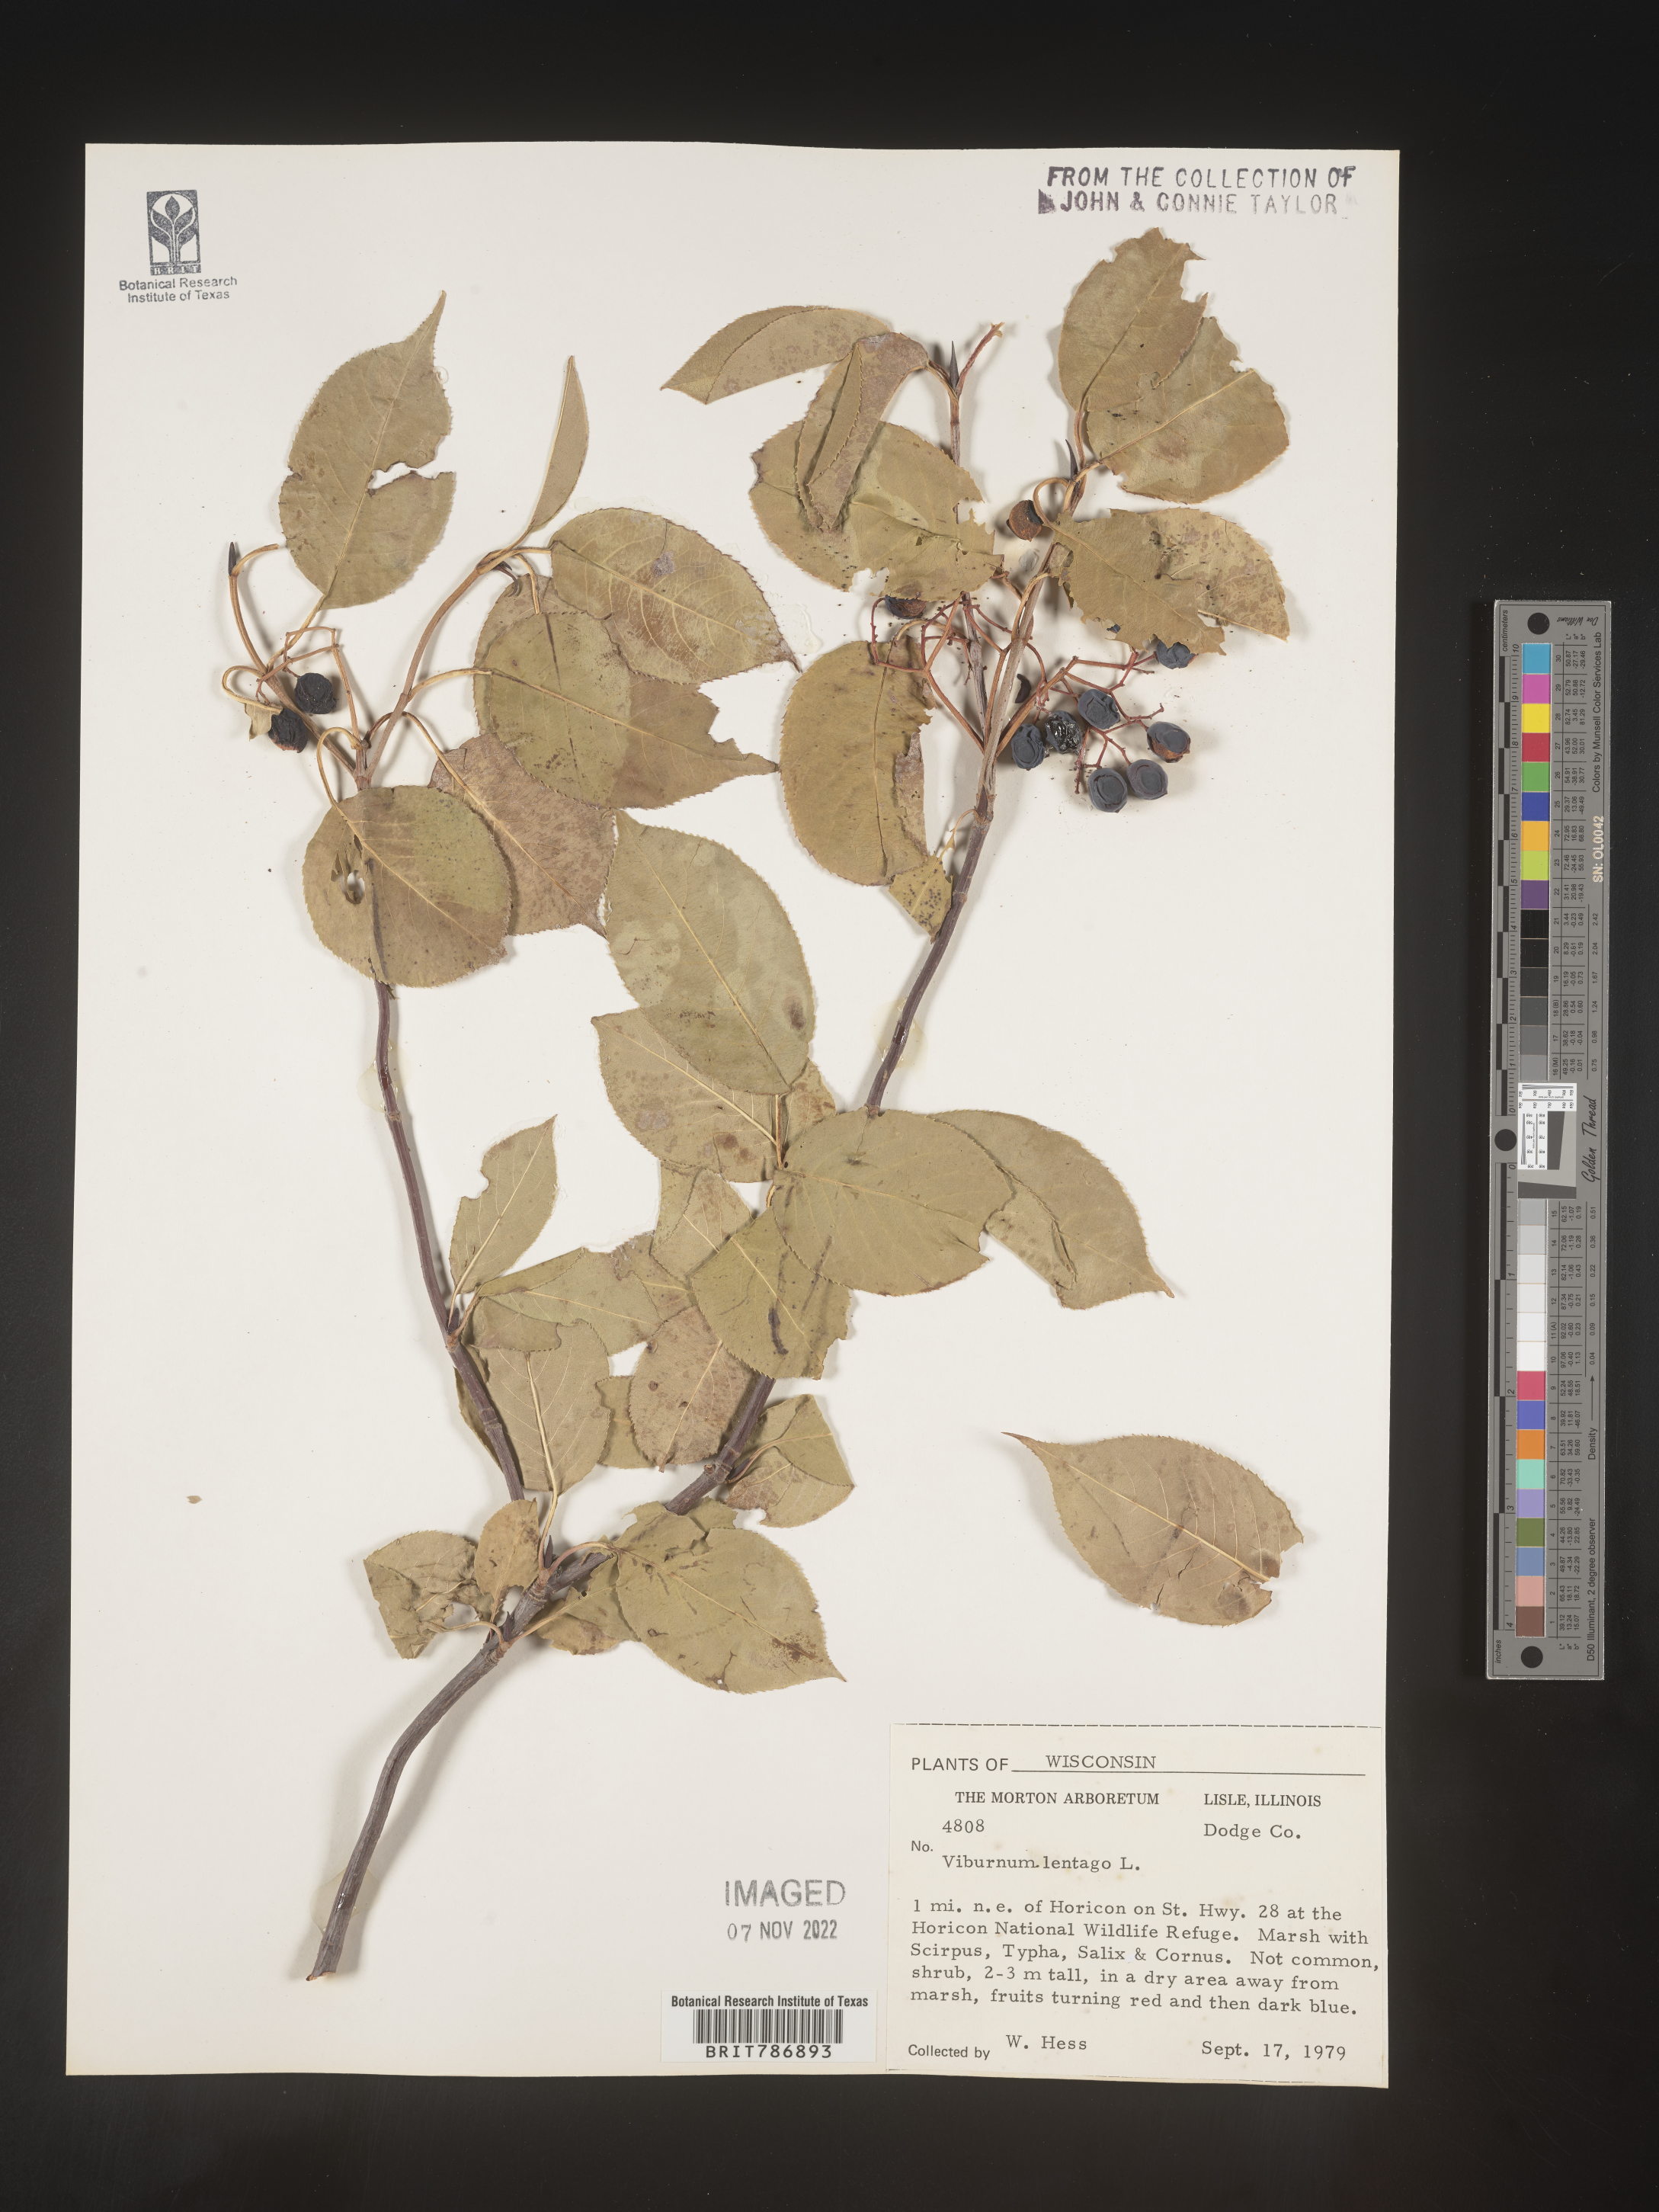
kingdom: Plantae
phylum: Tracheophyta
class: Magnoliopsida
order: Dipsacales
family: Viburnaceae
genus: Viburnum
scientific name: Viburnum lentago
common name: Black haw
